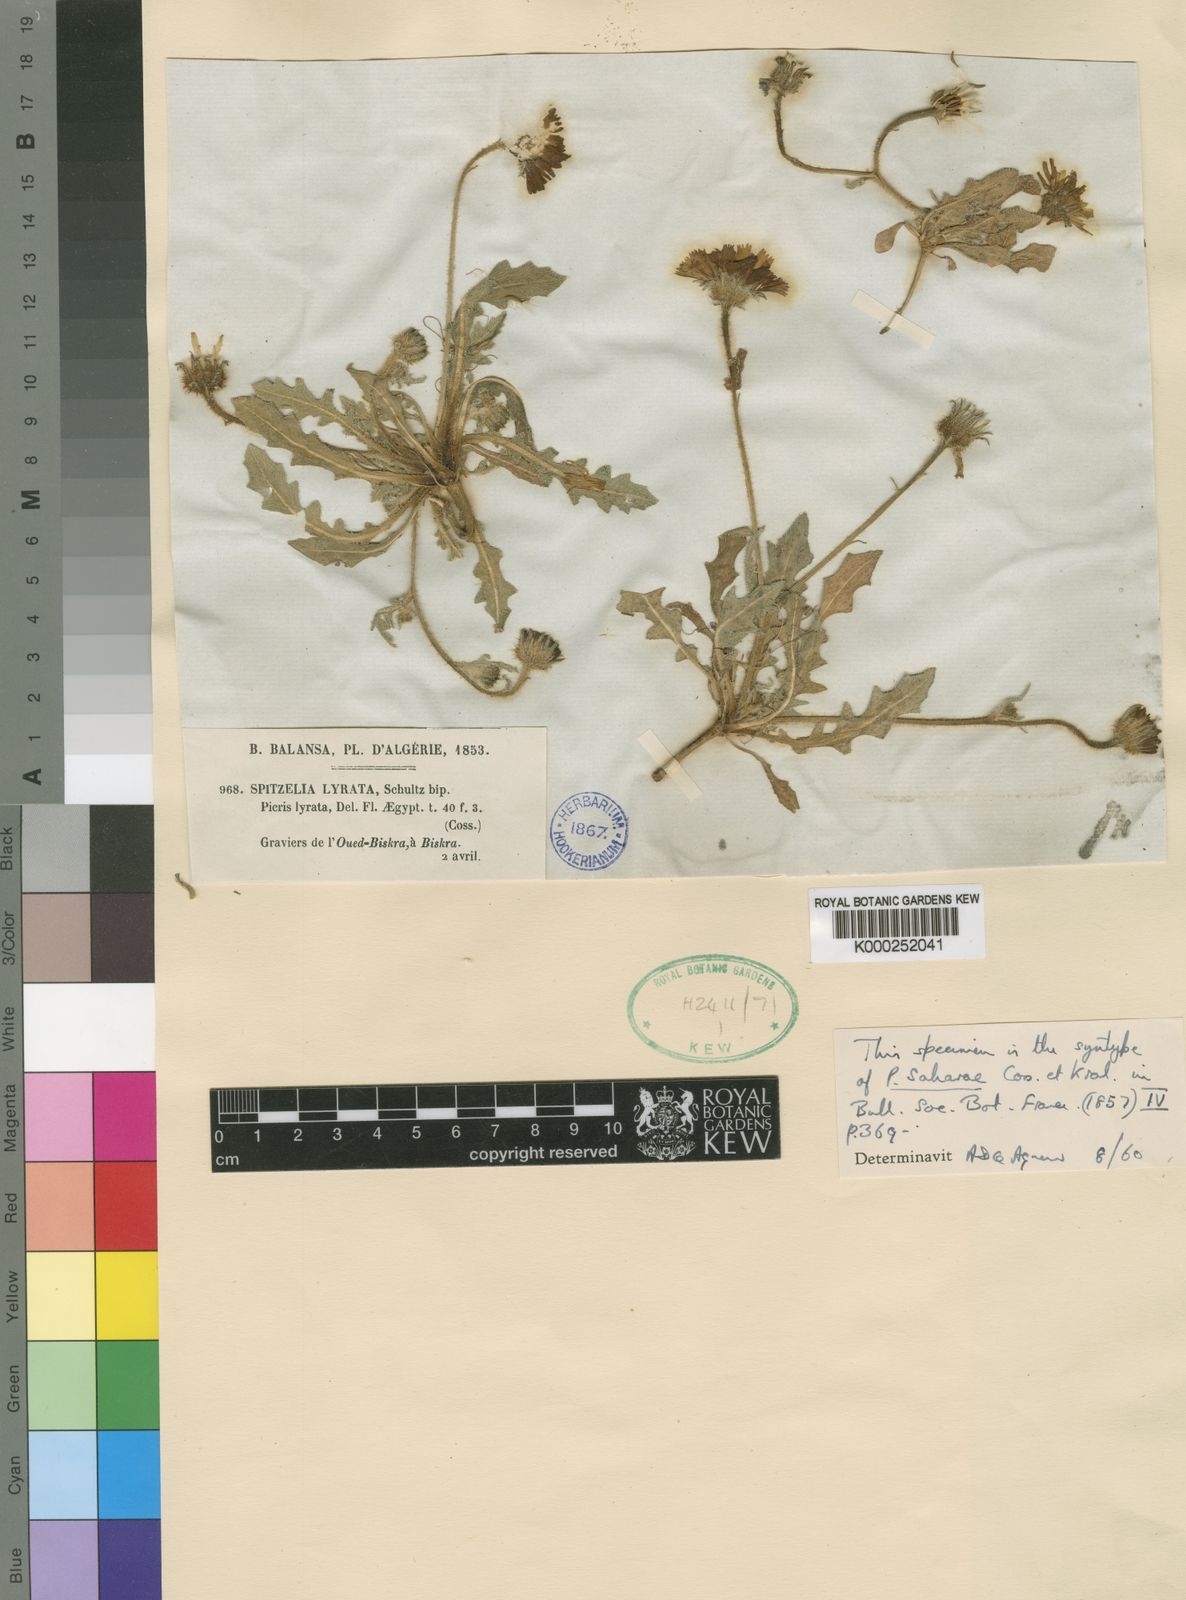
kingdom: Plantae
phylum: Tracheophyta
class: Magnoliopsida
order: Asterales
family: Asteraceae
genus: Picris
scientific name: Picris asplenioides
